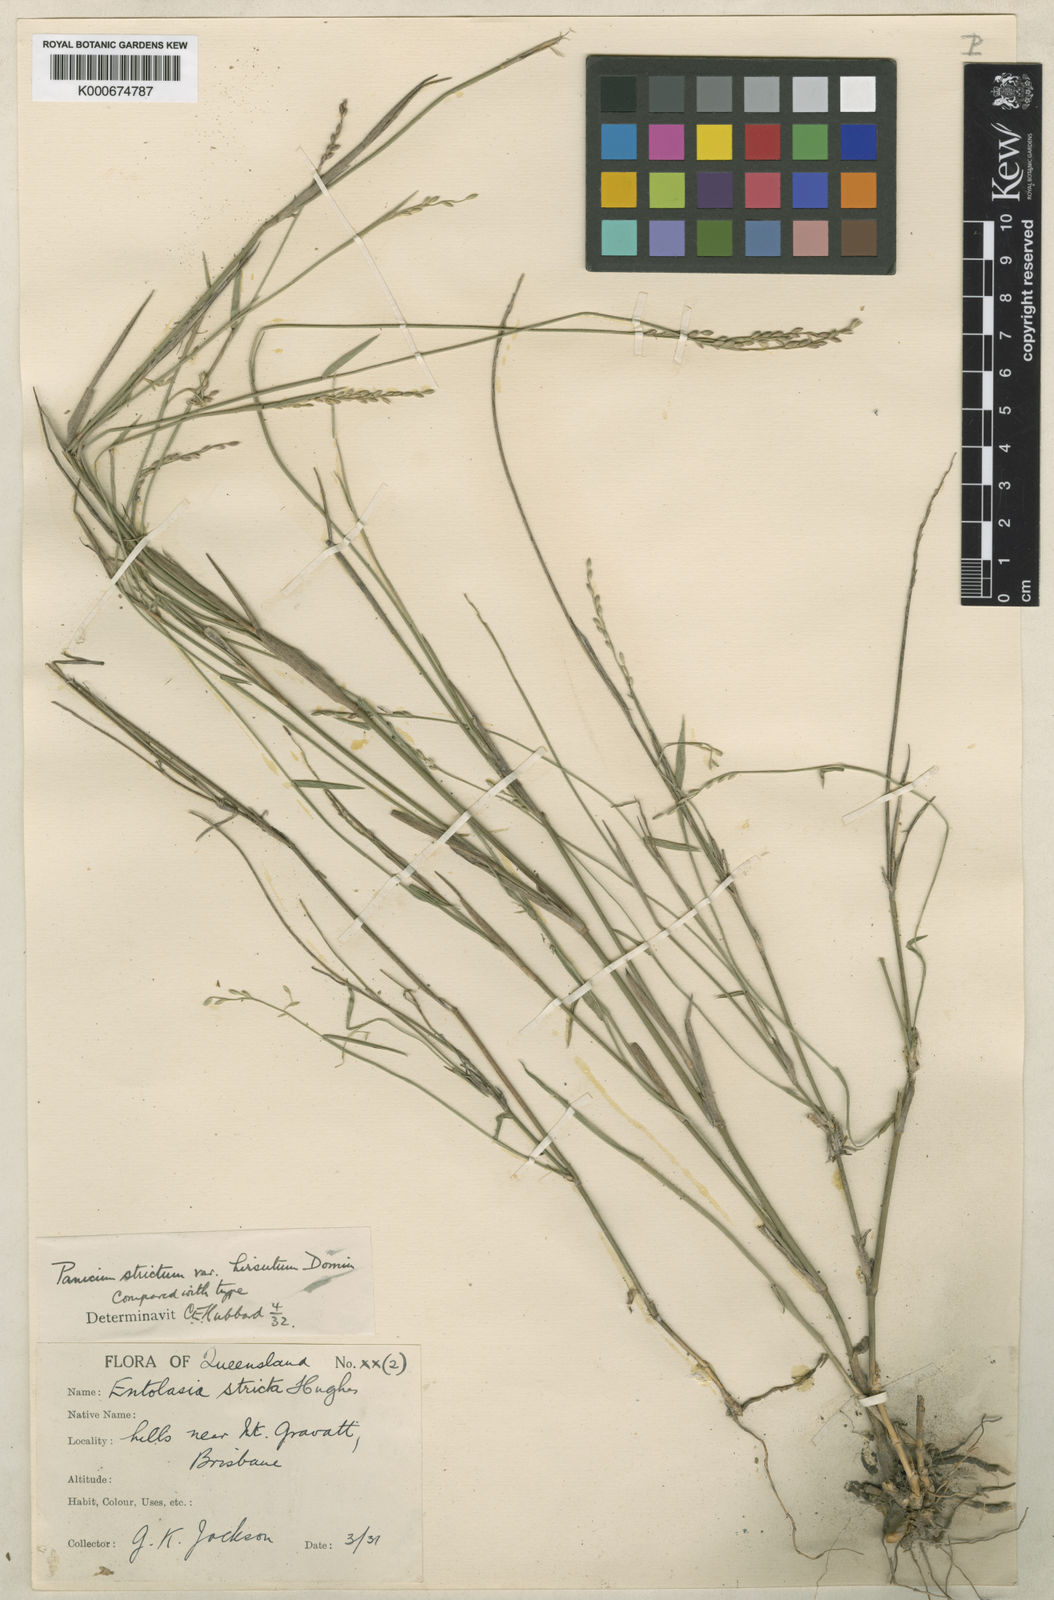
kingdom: Plantae
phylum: Tracheophyta
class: Liliopsida
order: Poales
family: Poaceae
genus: Entolasia
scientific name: Entolasia stricta
